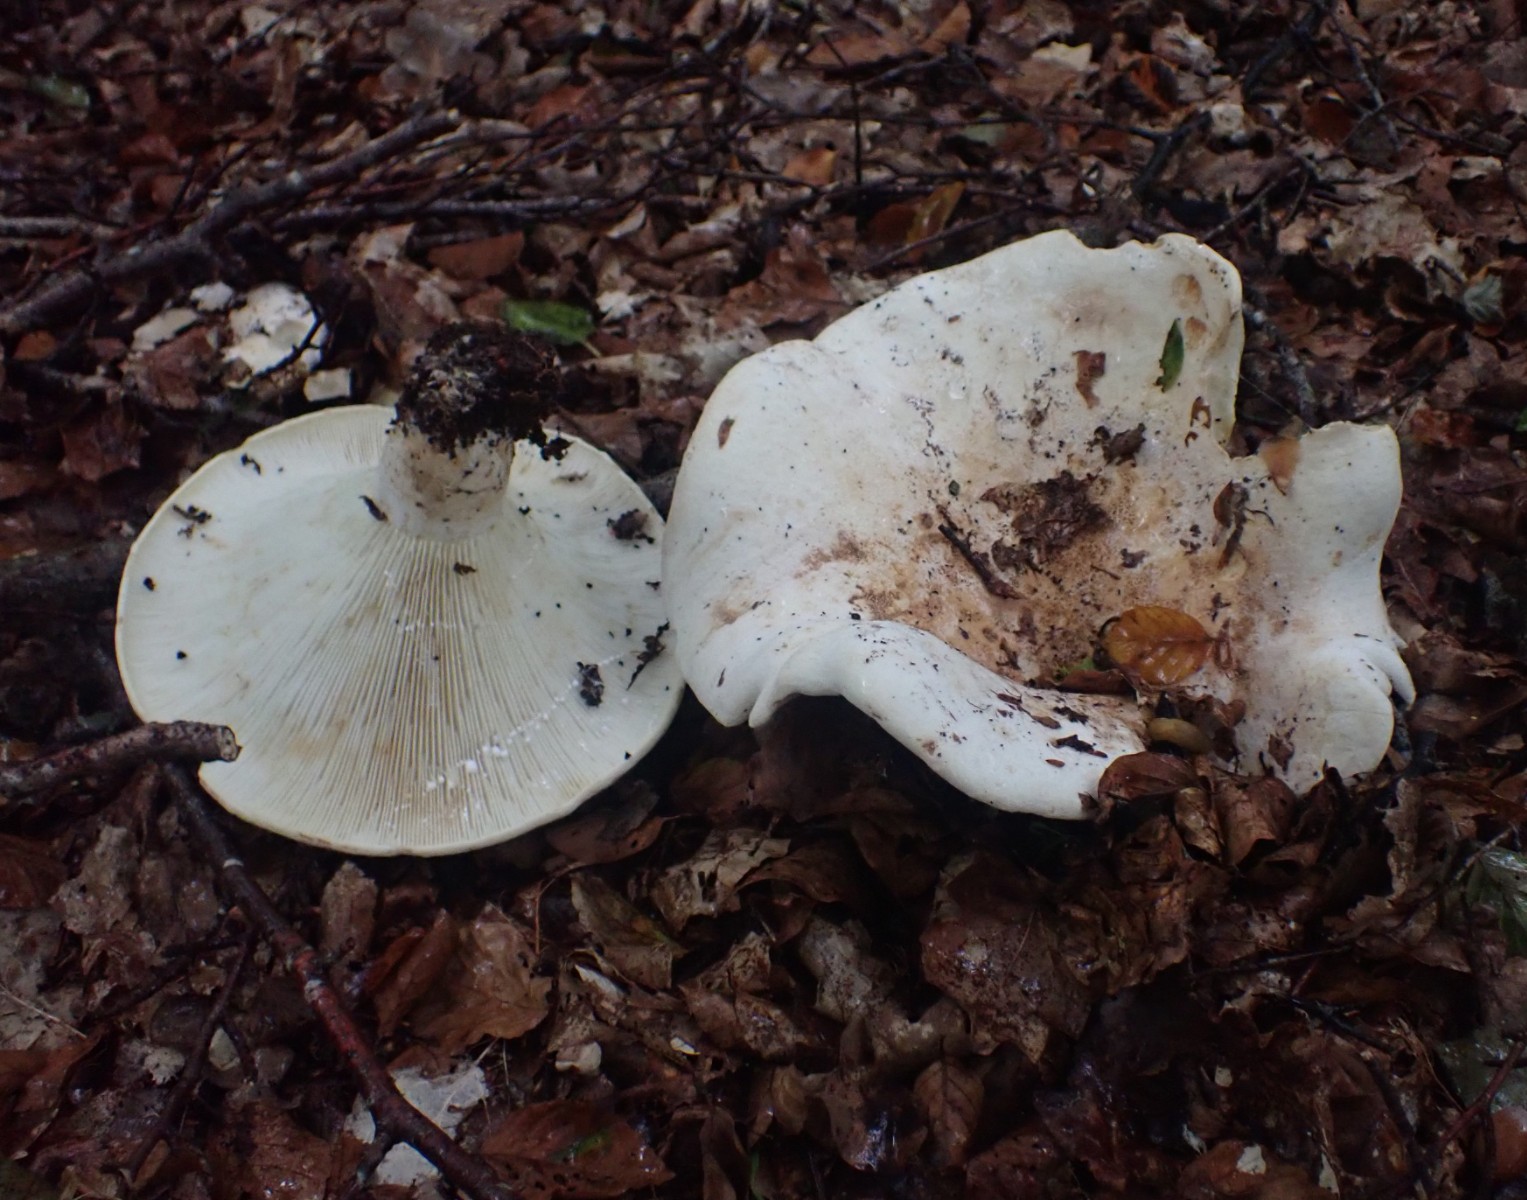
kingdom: Fungi
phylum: Basidiomycota
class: Agaricomycetes
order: Russulales
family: Russulaceae
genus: Lactifluus
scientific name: Lactifluus vellereus
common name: hvidfiltet mælkehat
